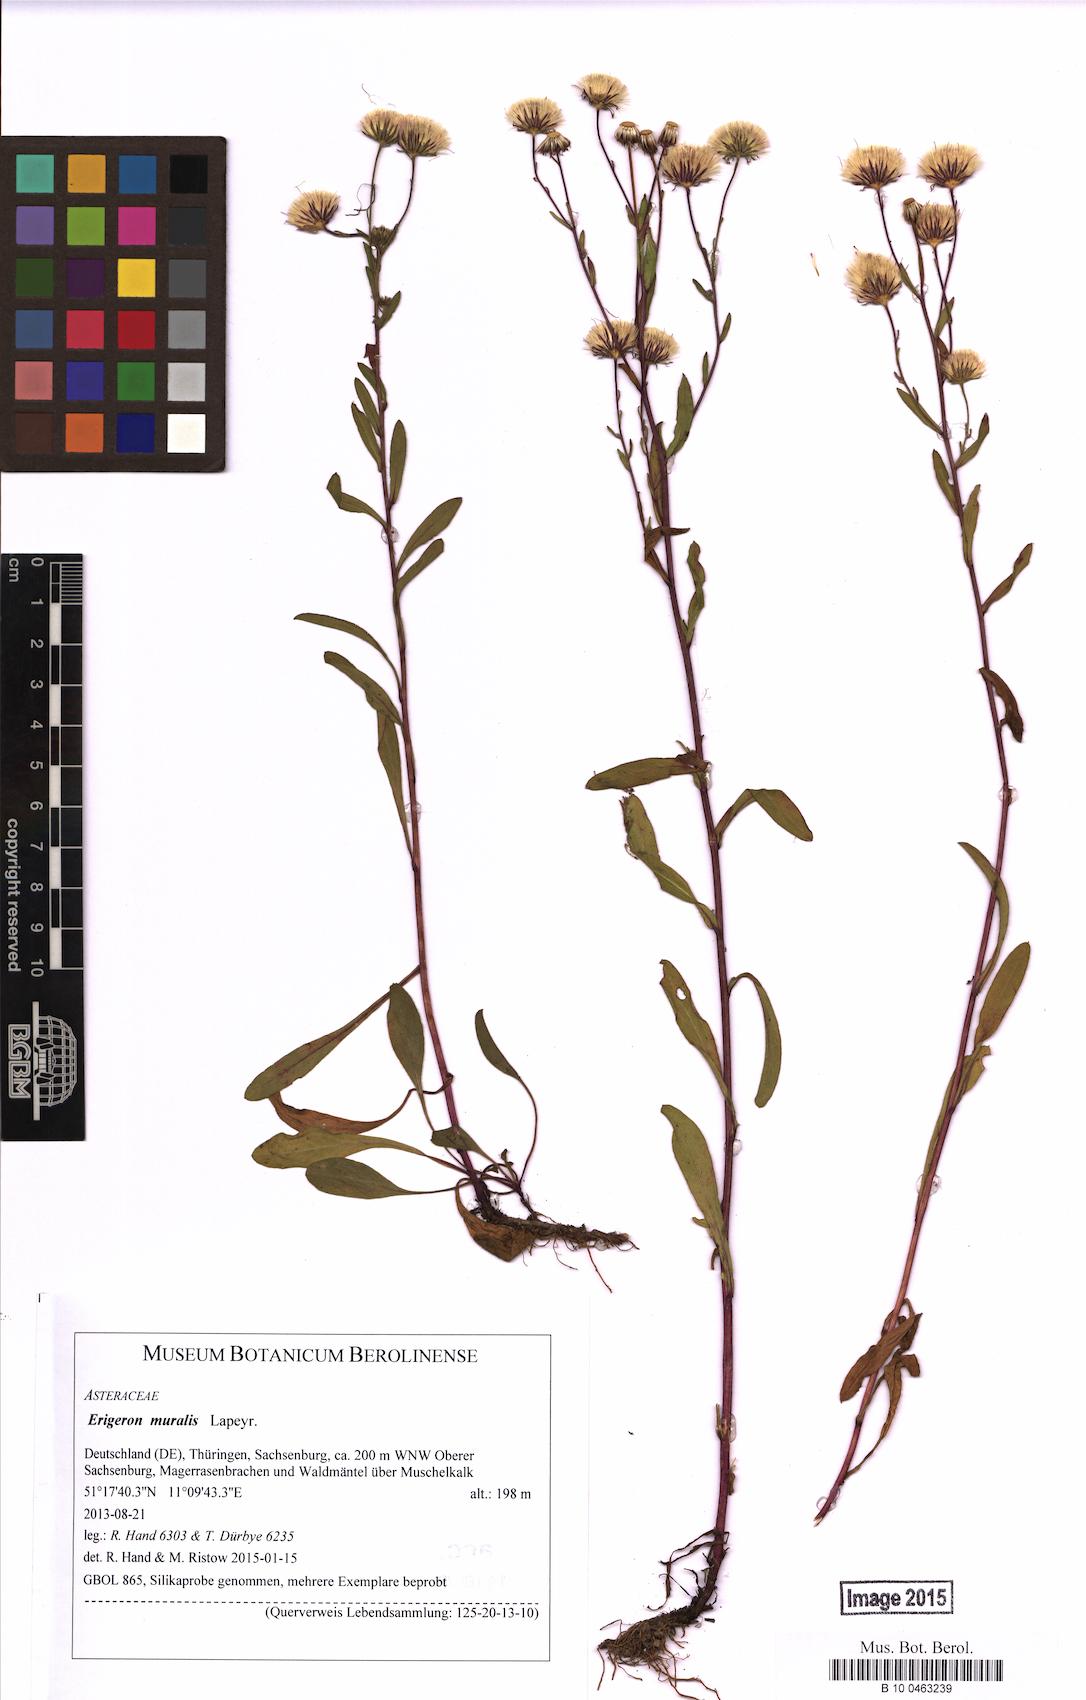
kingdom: Plantae
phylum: Tracheophyta
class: Magnoliopsida
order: Asterales
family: Asteraceae
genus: Erigeron
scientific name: Erigeron muralis
